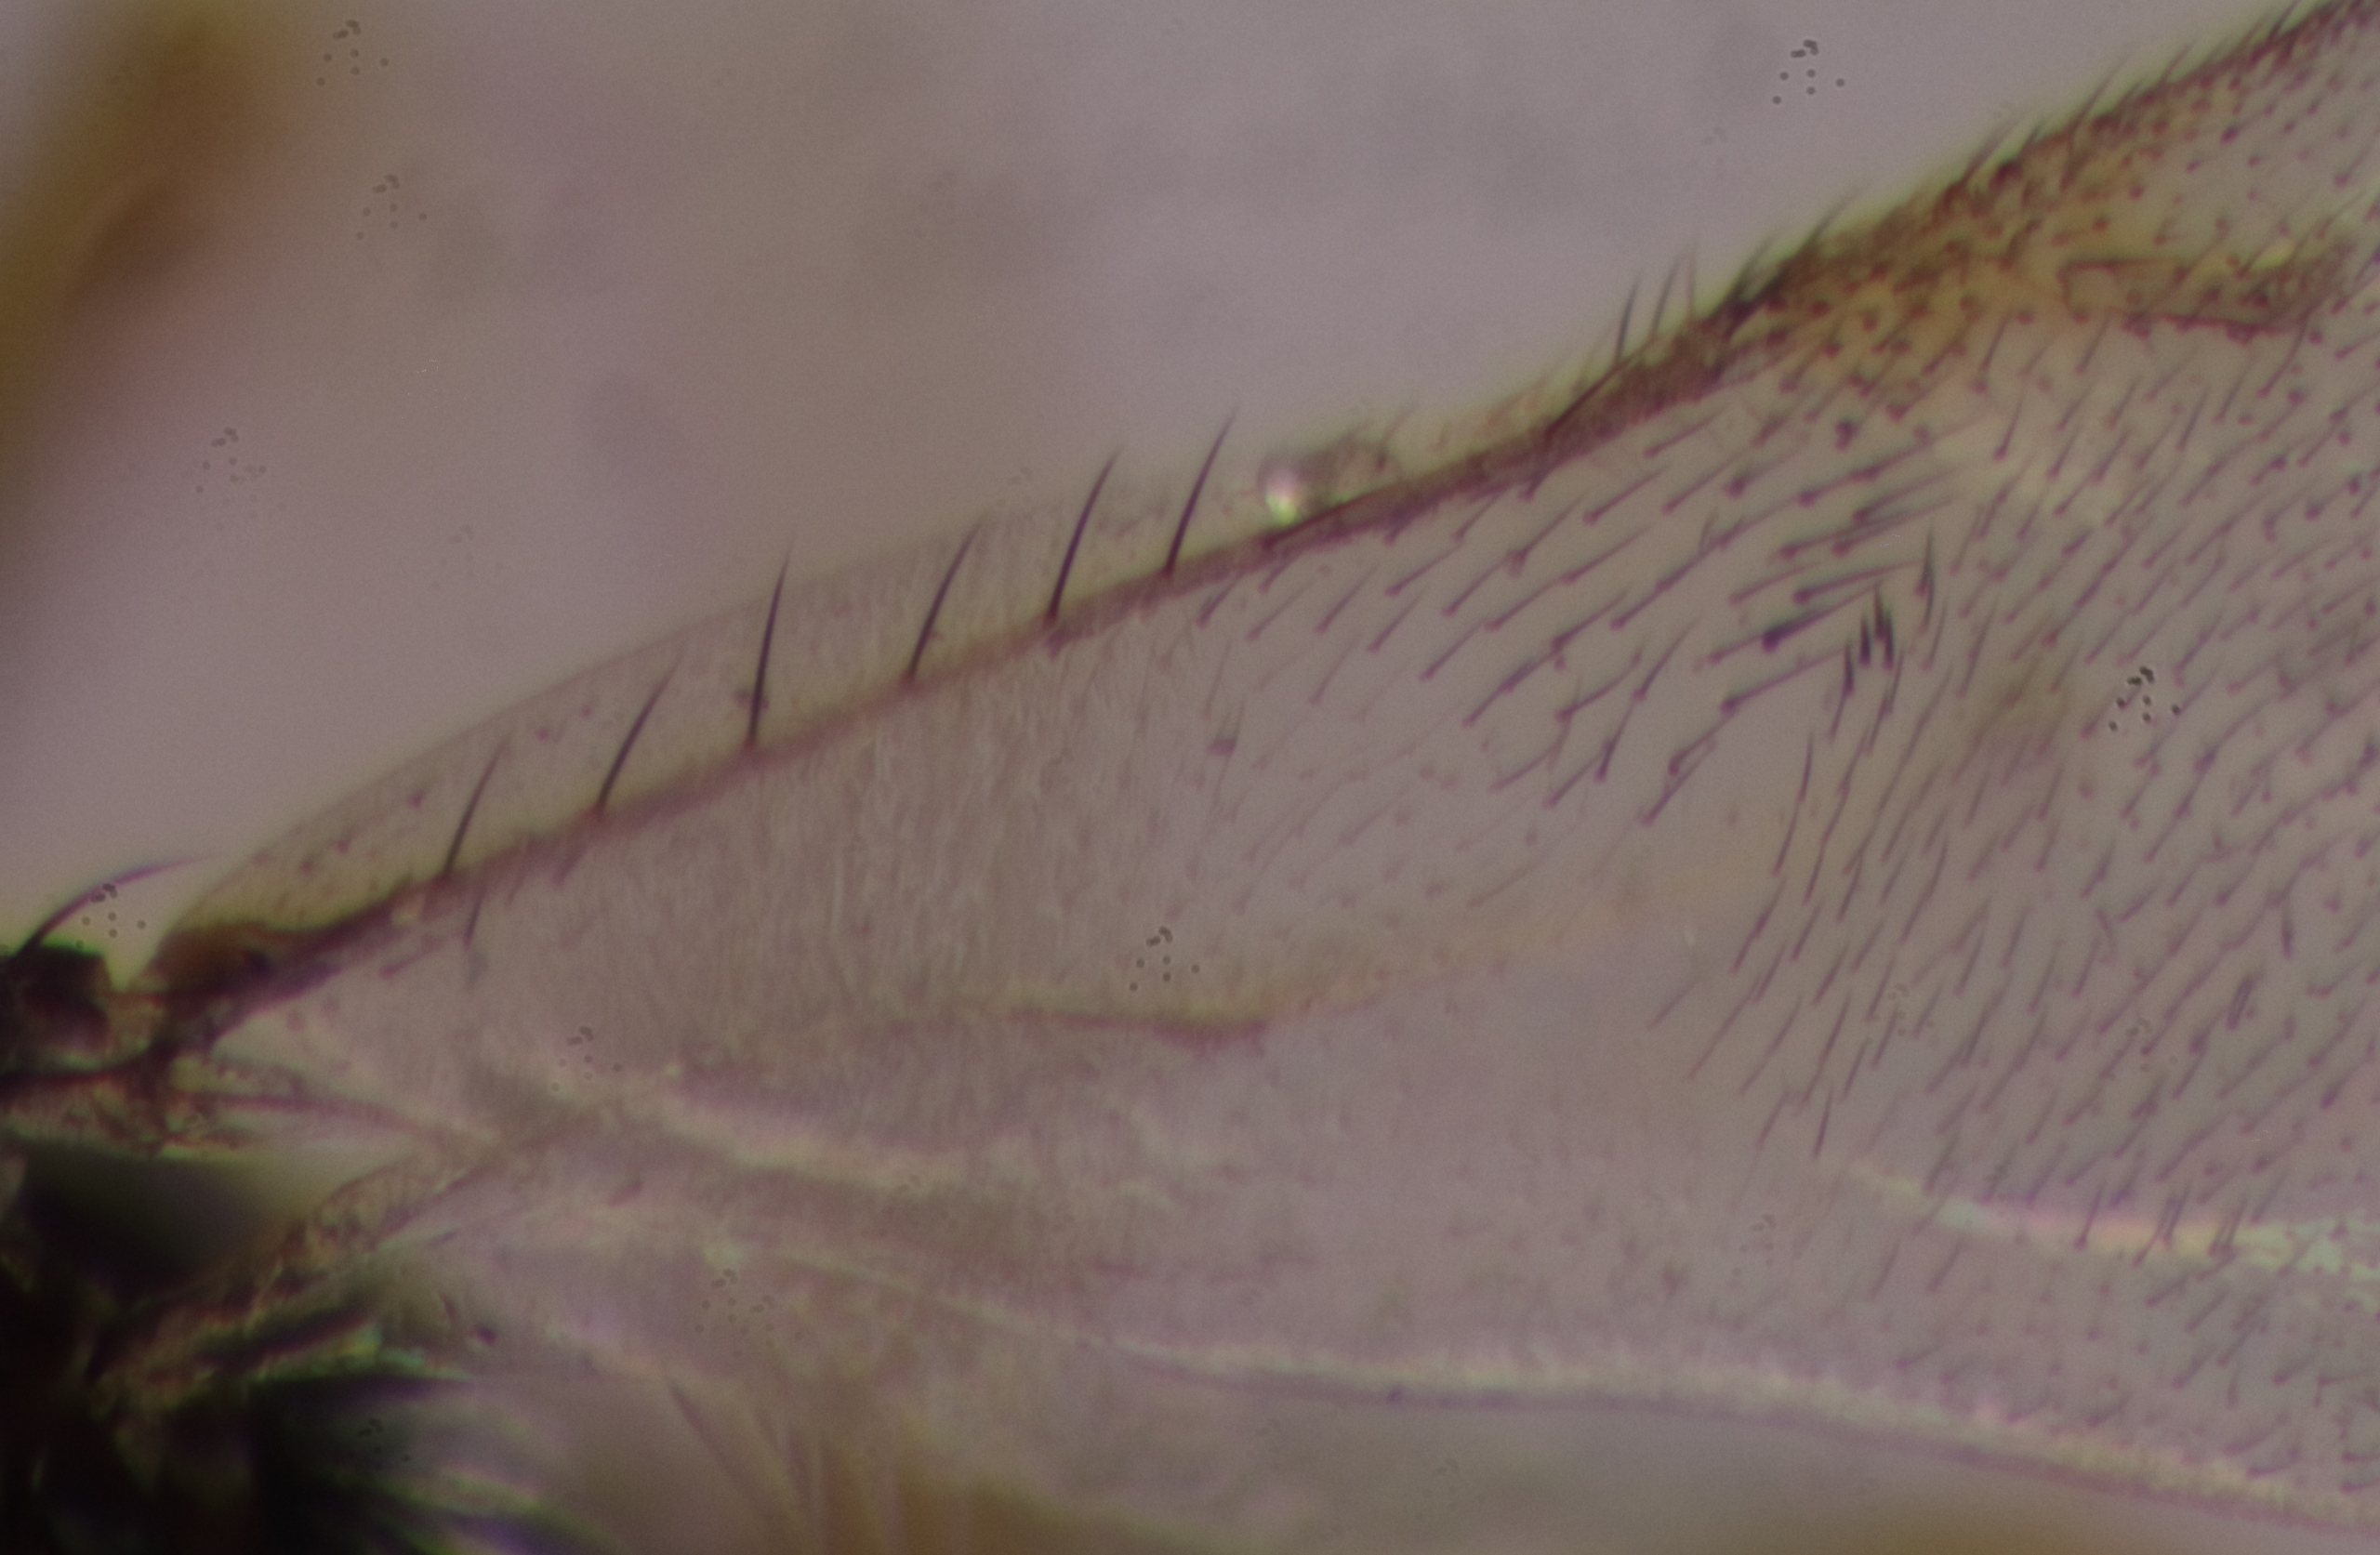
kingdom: Animalia
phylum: Arthropoda
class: Insecta
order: Hymenoptera
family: Encyrtidae
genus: Trichomasthus
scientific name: Trichomasthus cyanifrons
